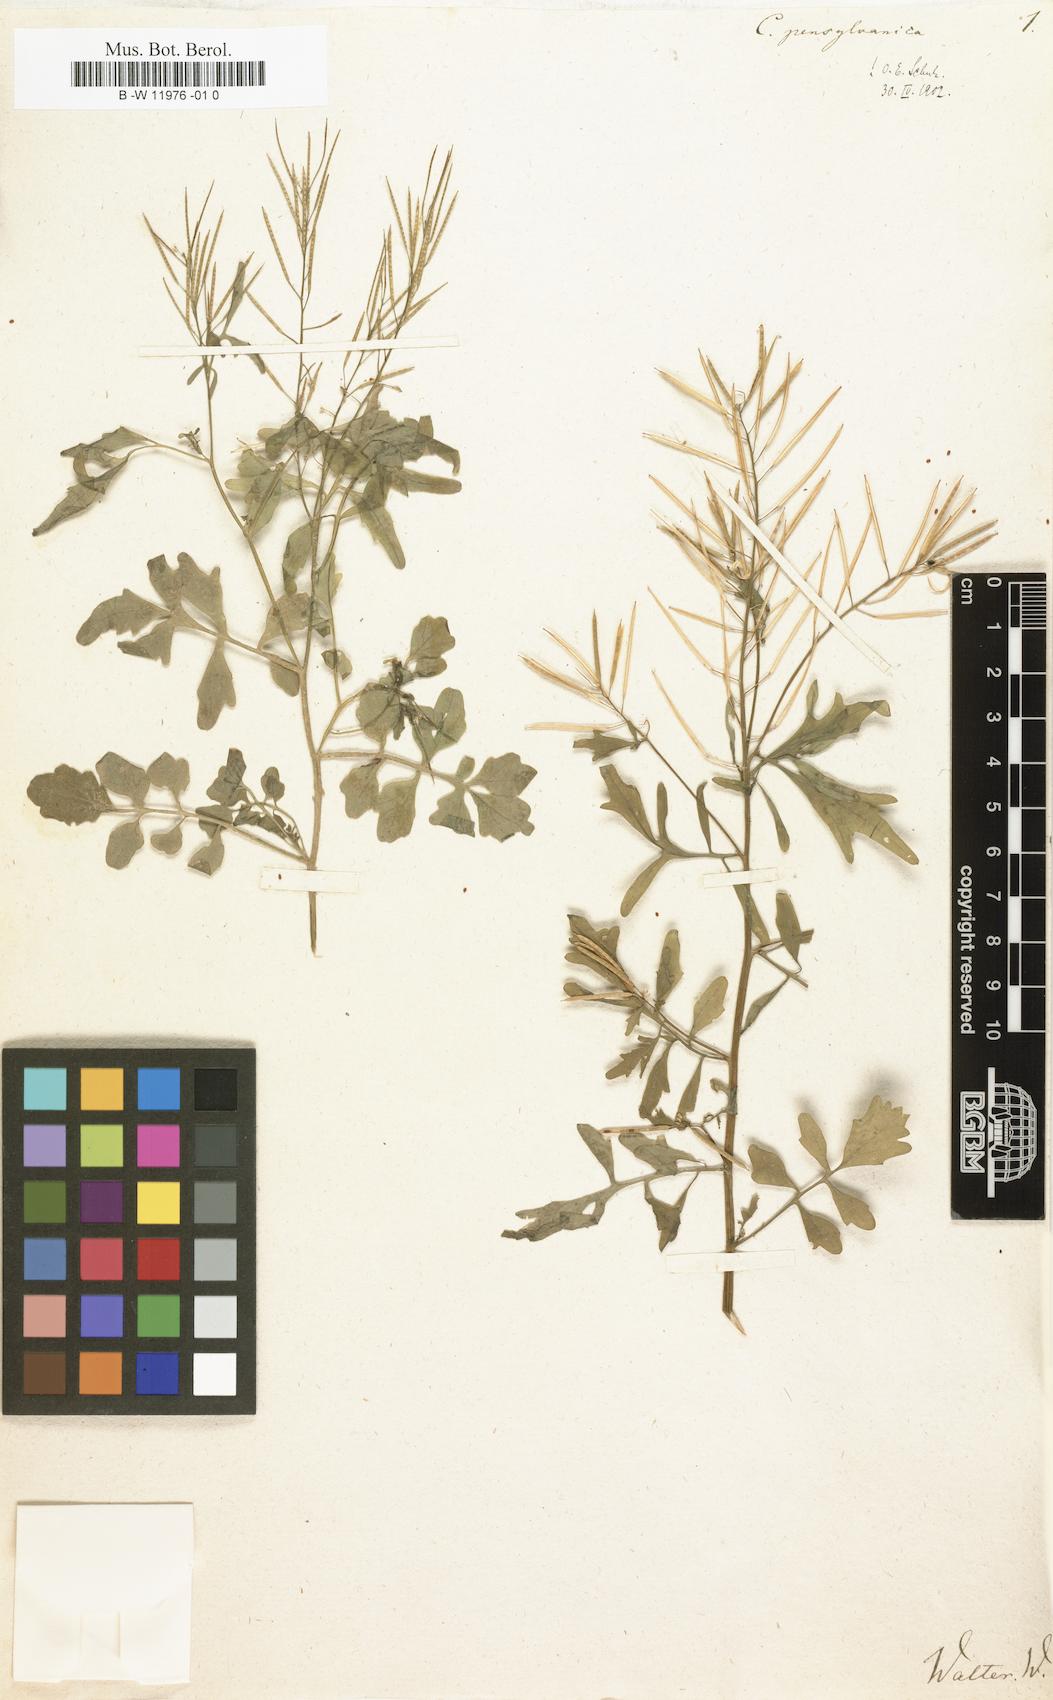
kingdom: Plantae
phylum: Tracheophyta
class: Magnoliopsida
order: Brassicales
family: Brassicaceae
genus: Cardamine
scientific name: Cardamine pensylvanica
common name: Pennsylvania bittercress
